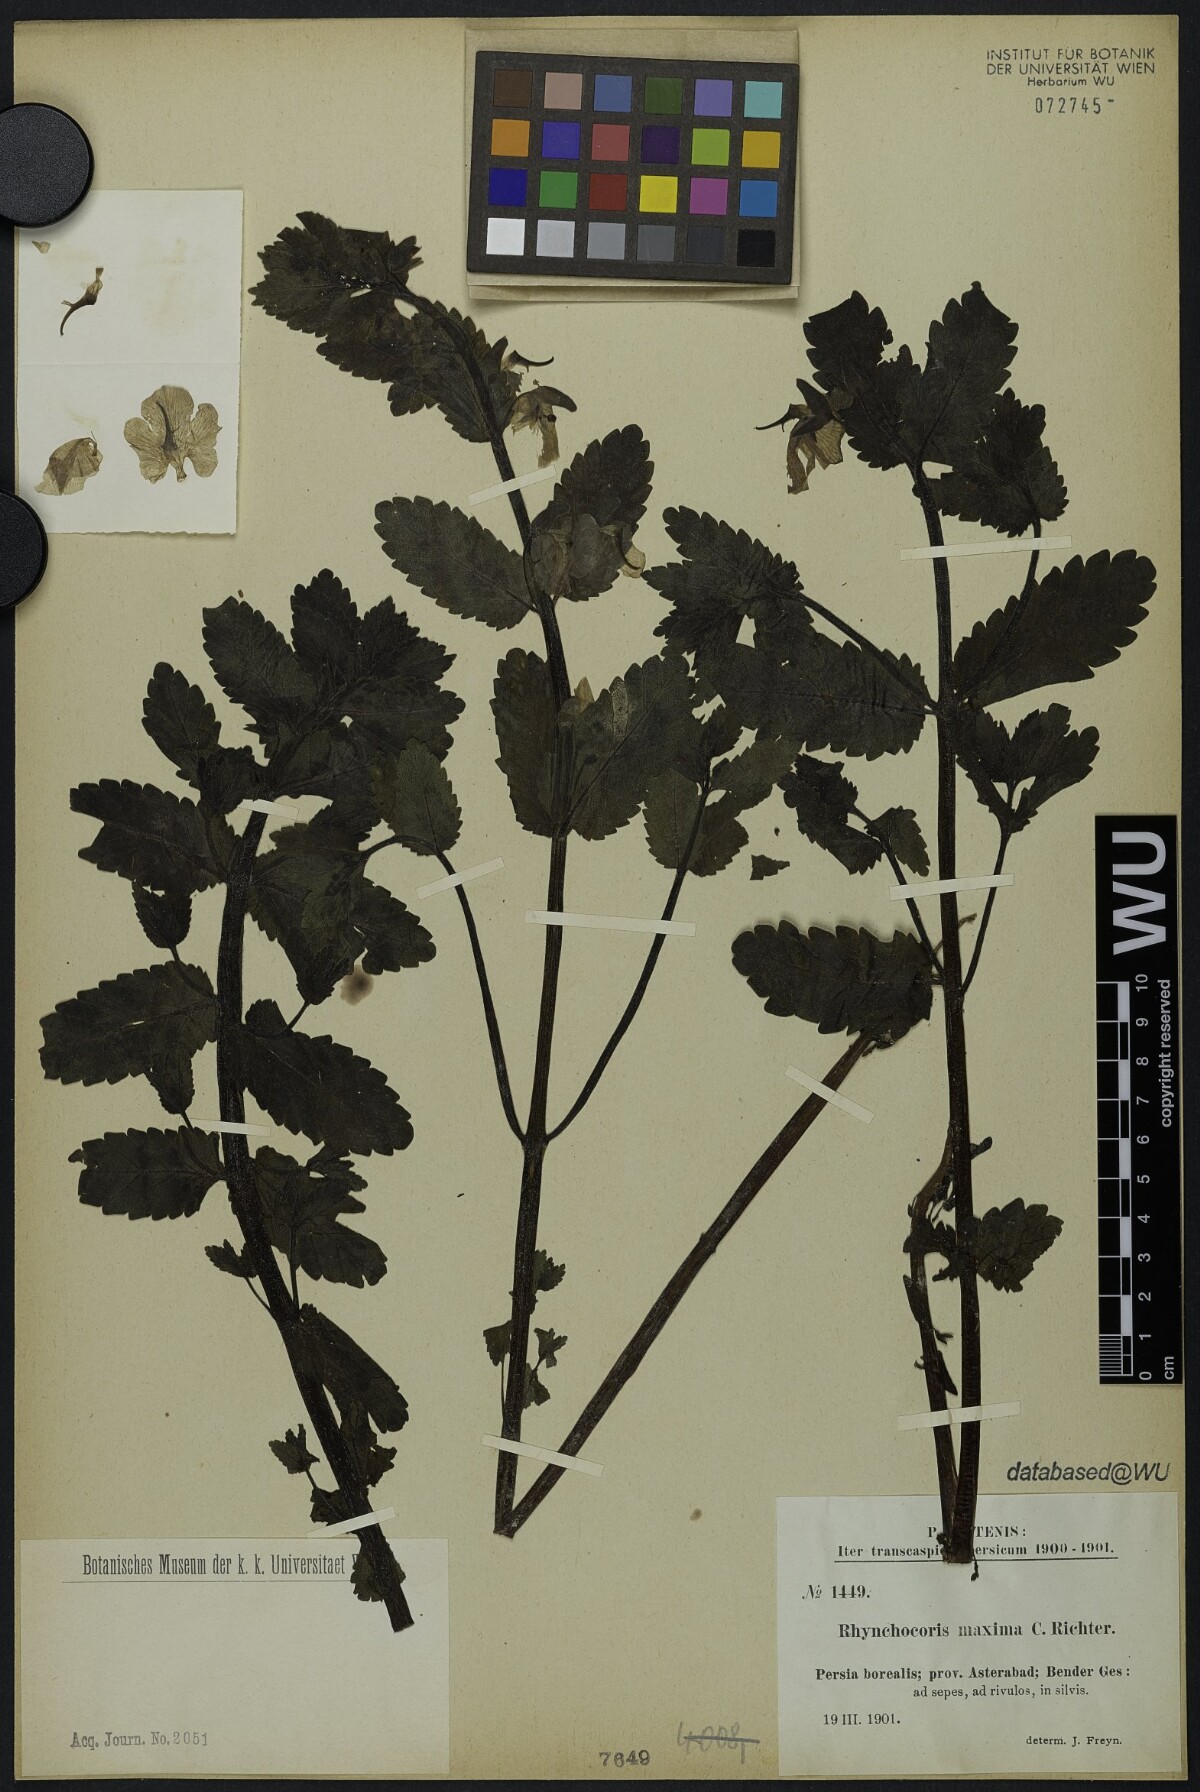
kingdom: Plantae
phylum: Tracheophyta
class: Magnoliopsida
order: Lamiales
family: Scrophulariaceae
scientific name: Scrophulariaceae
